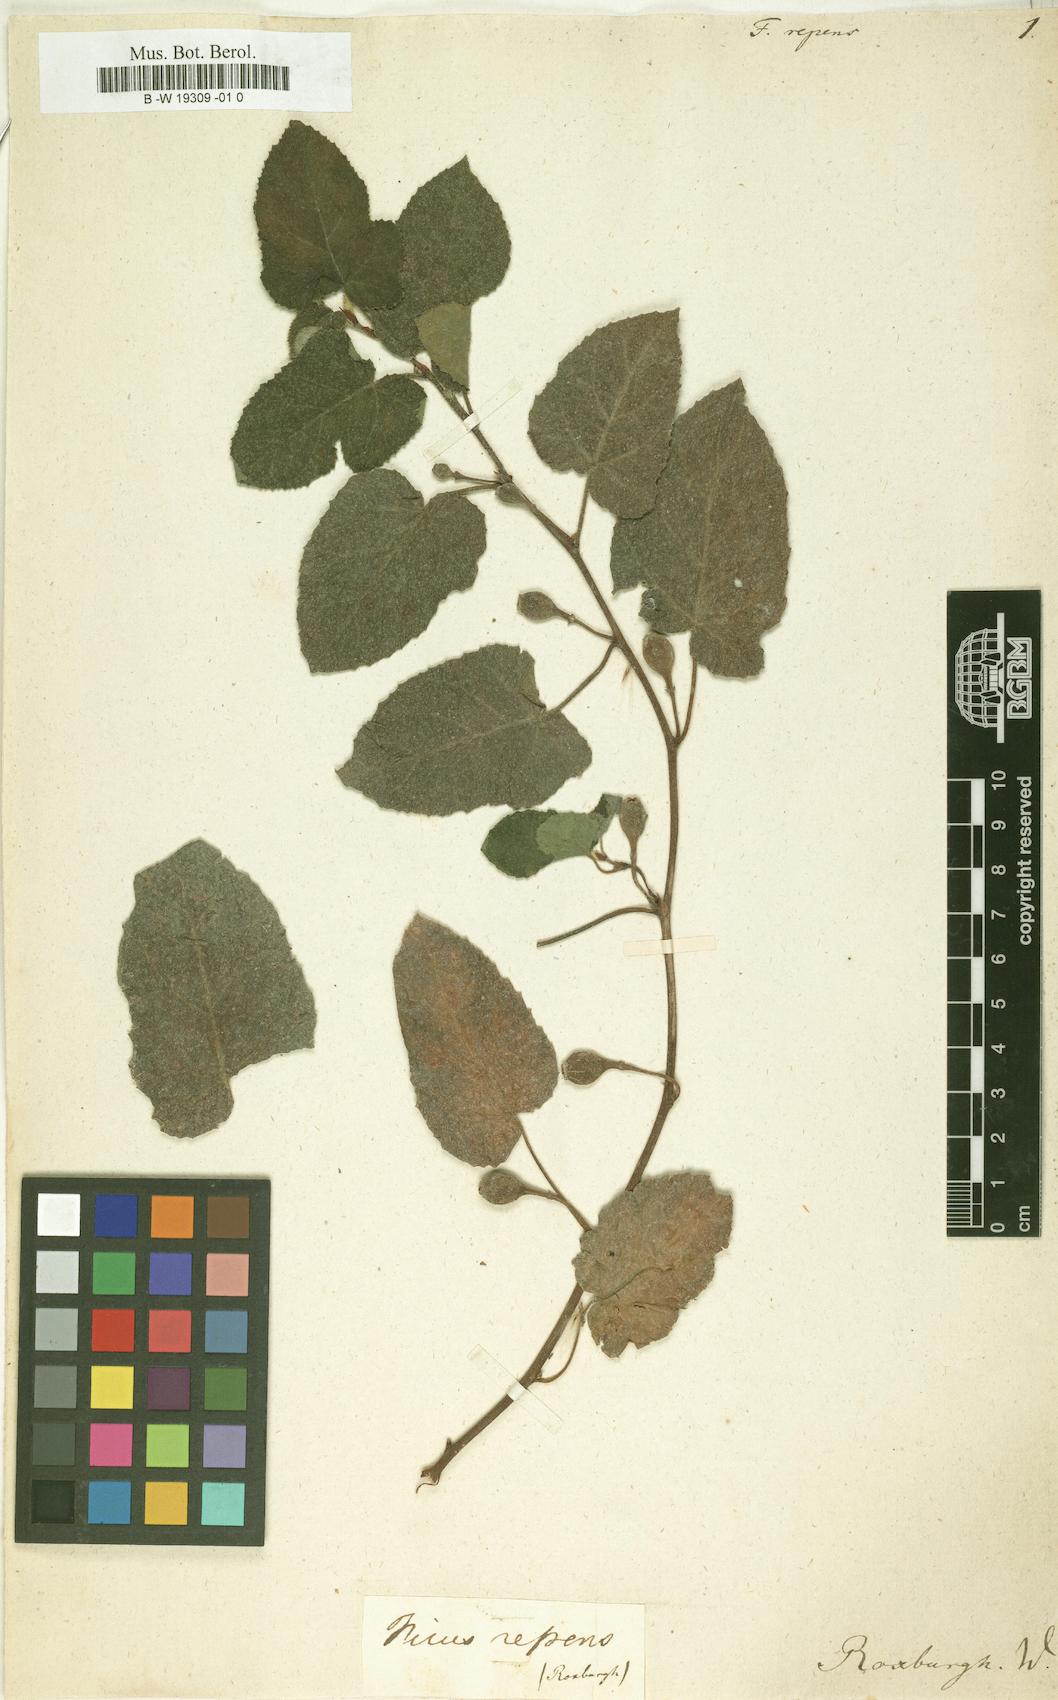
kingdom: Plantae
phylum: Tracheophyta
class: Magnoliopsida
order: Rosales
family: Moraceae
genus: Ficus
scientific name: Ficus
